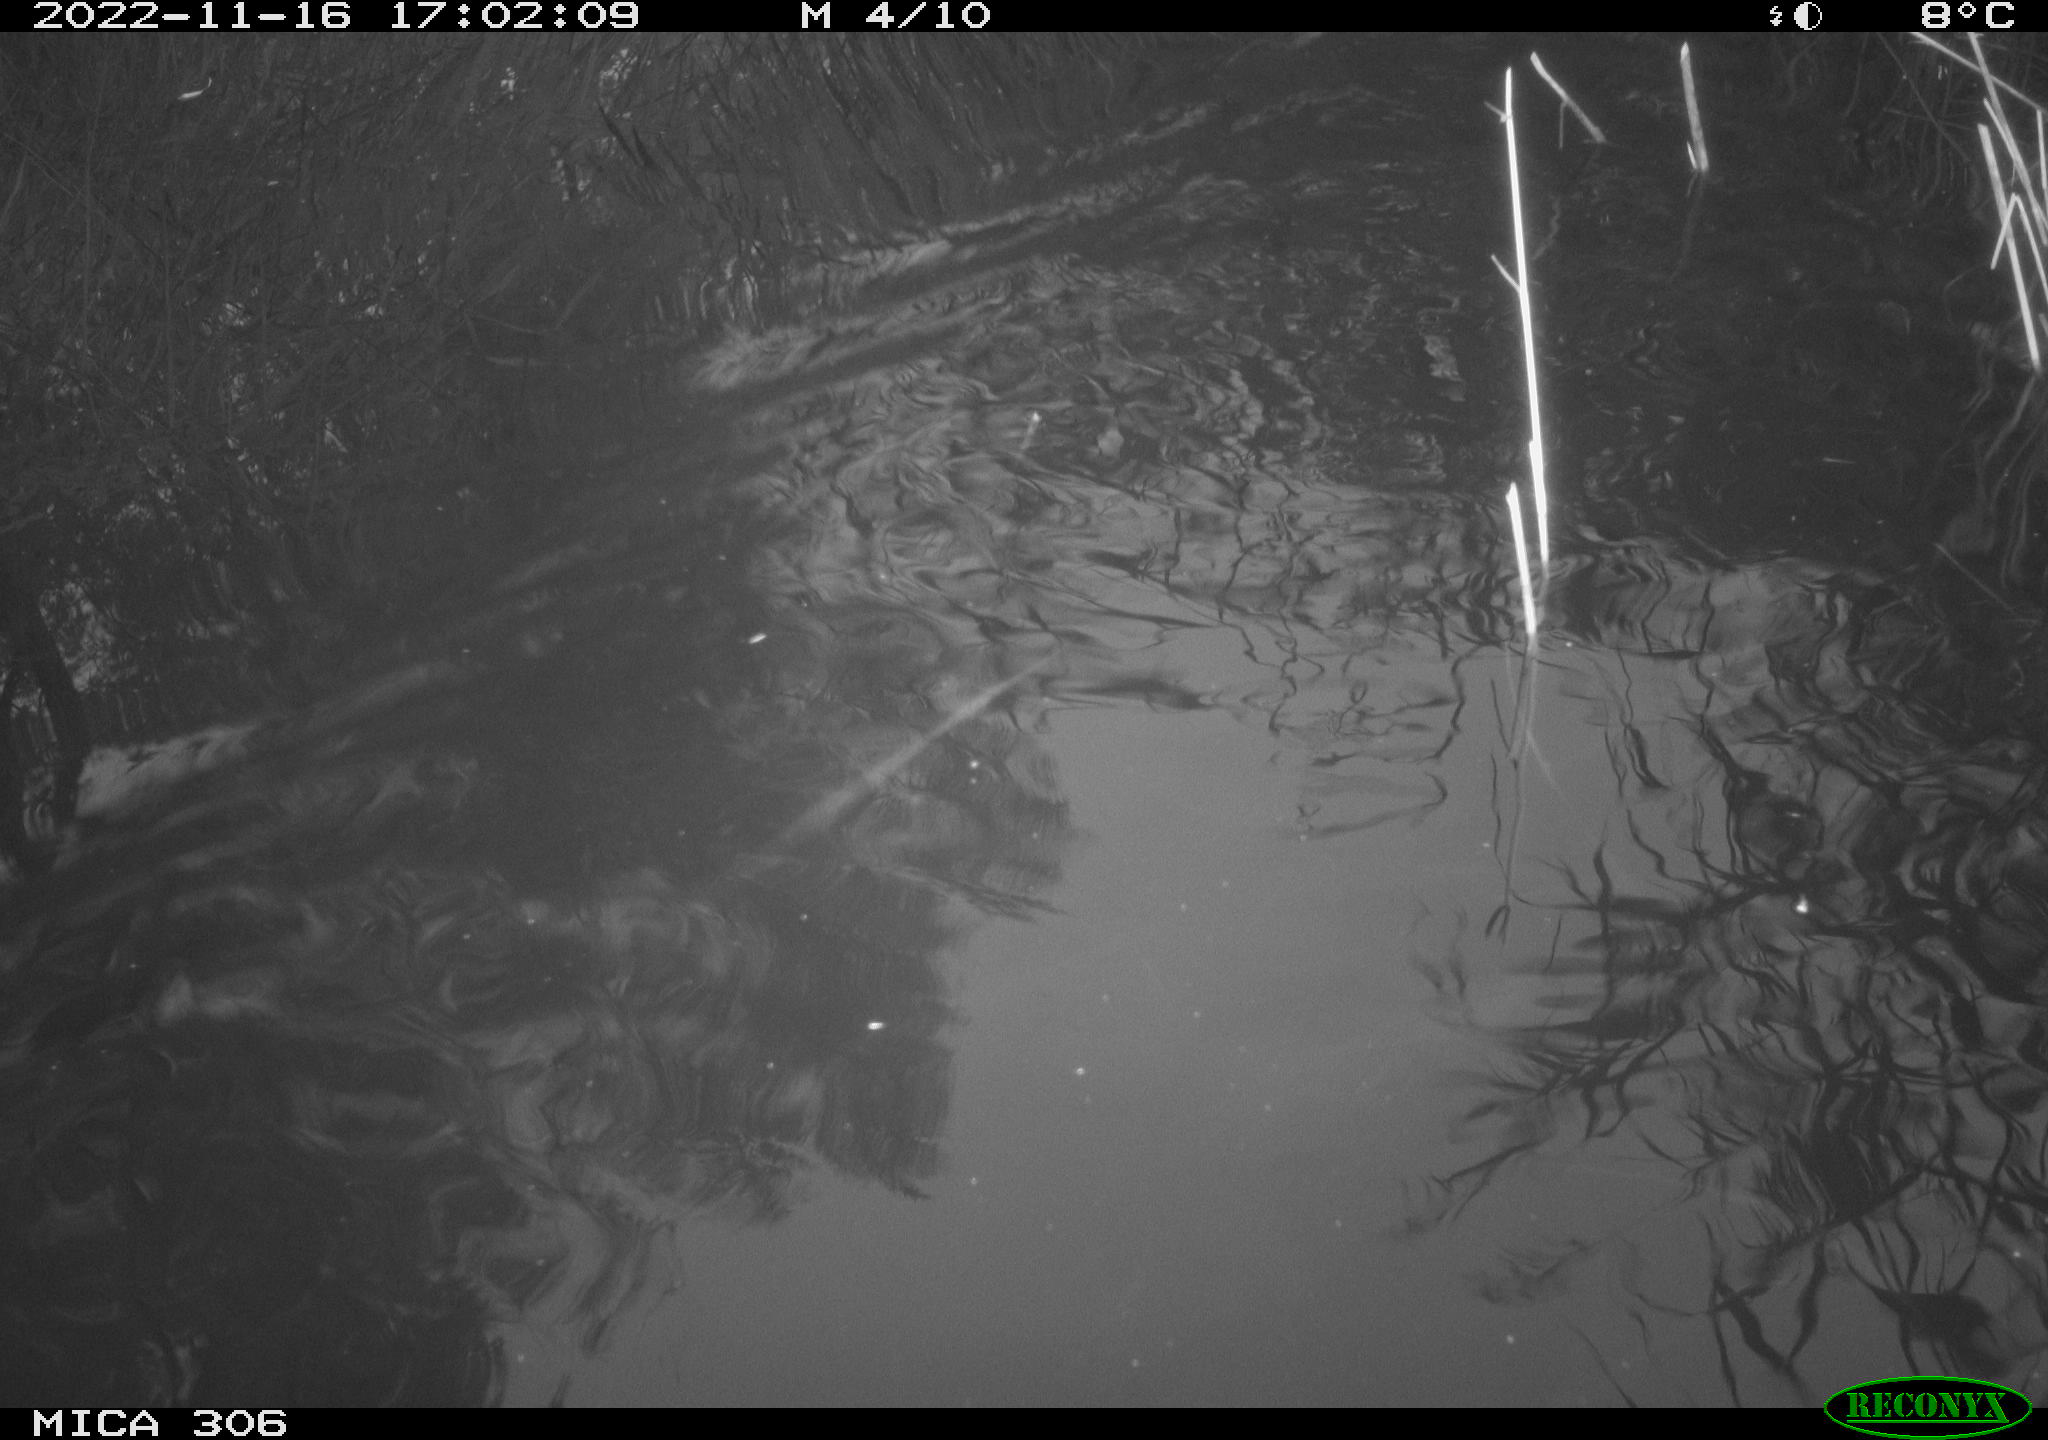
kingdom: Animalia
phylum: Chordata
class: Mammalia
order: Rodentia
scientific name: Rodentia
